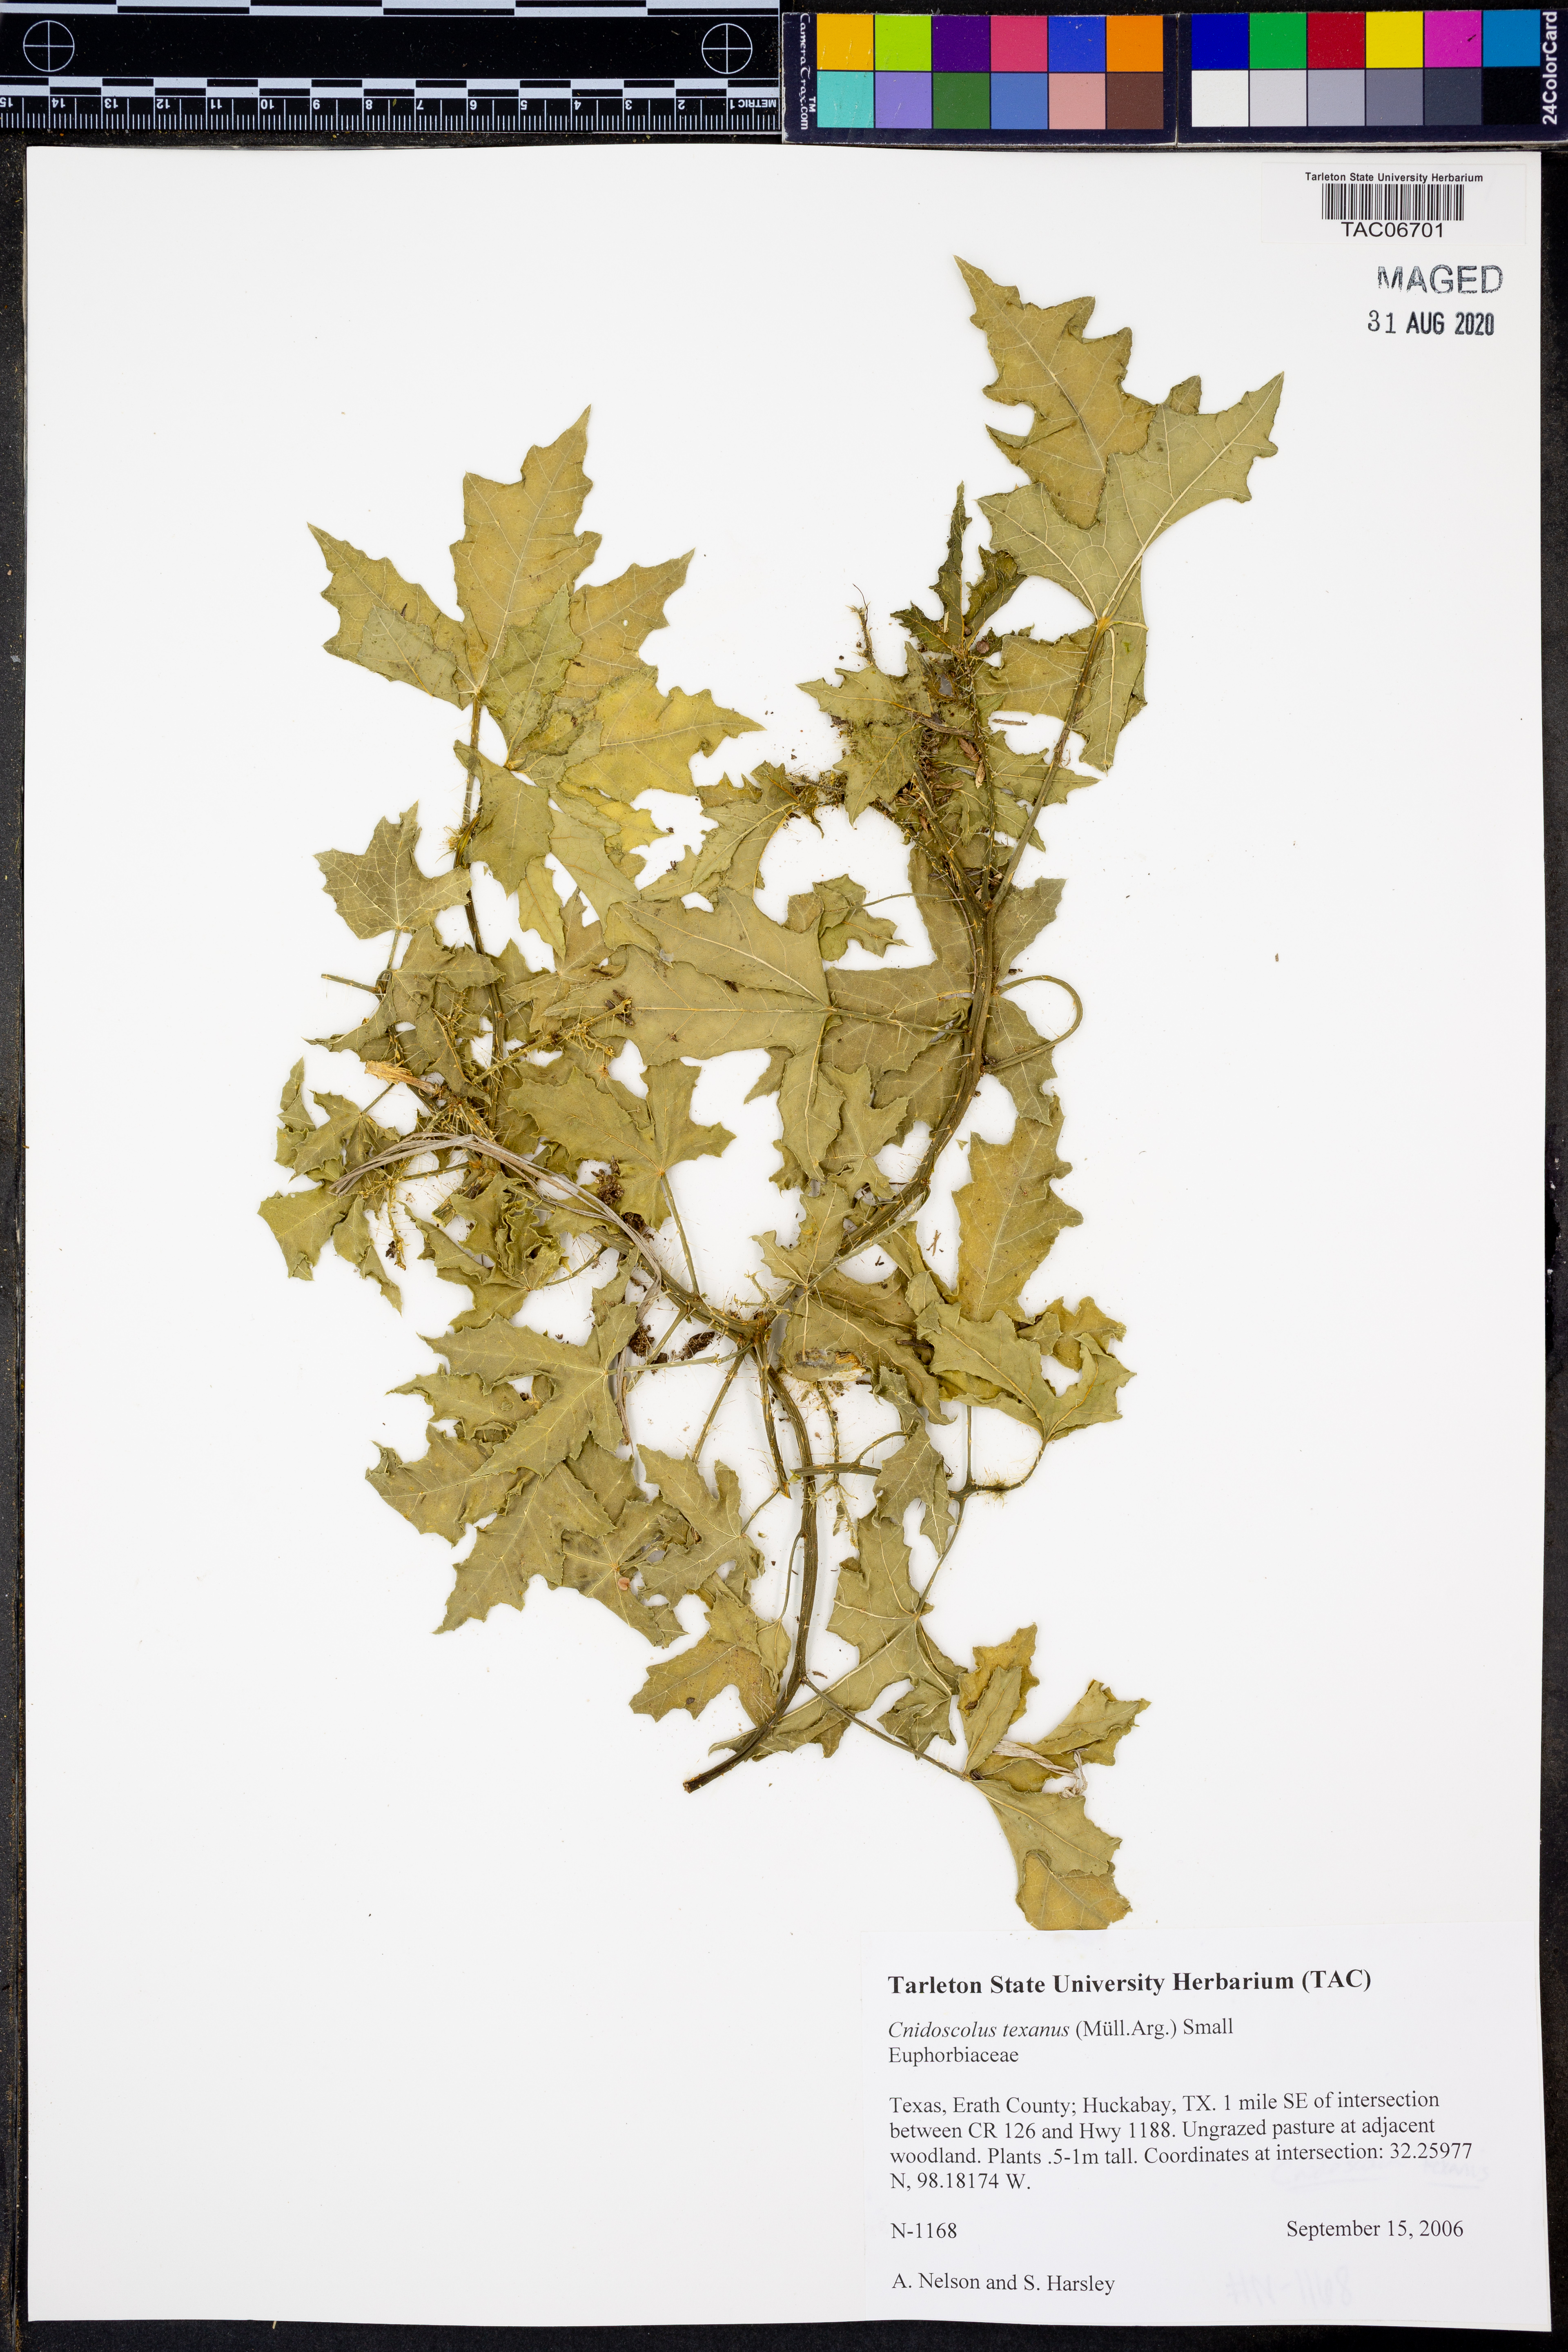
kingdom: Plantae
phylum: Tracheophyta
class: Magnoliopsida
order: Malpighiales
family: Euphorbiaceae
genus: Cnidoscolus
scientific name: Cnidoscolus texanus
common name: Texas bull-nettle
